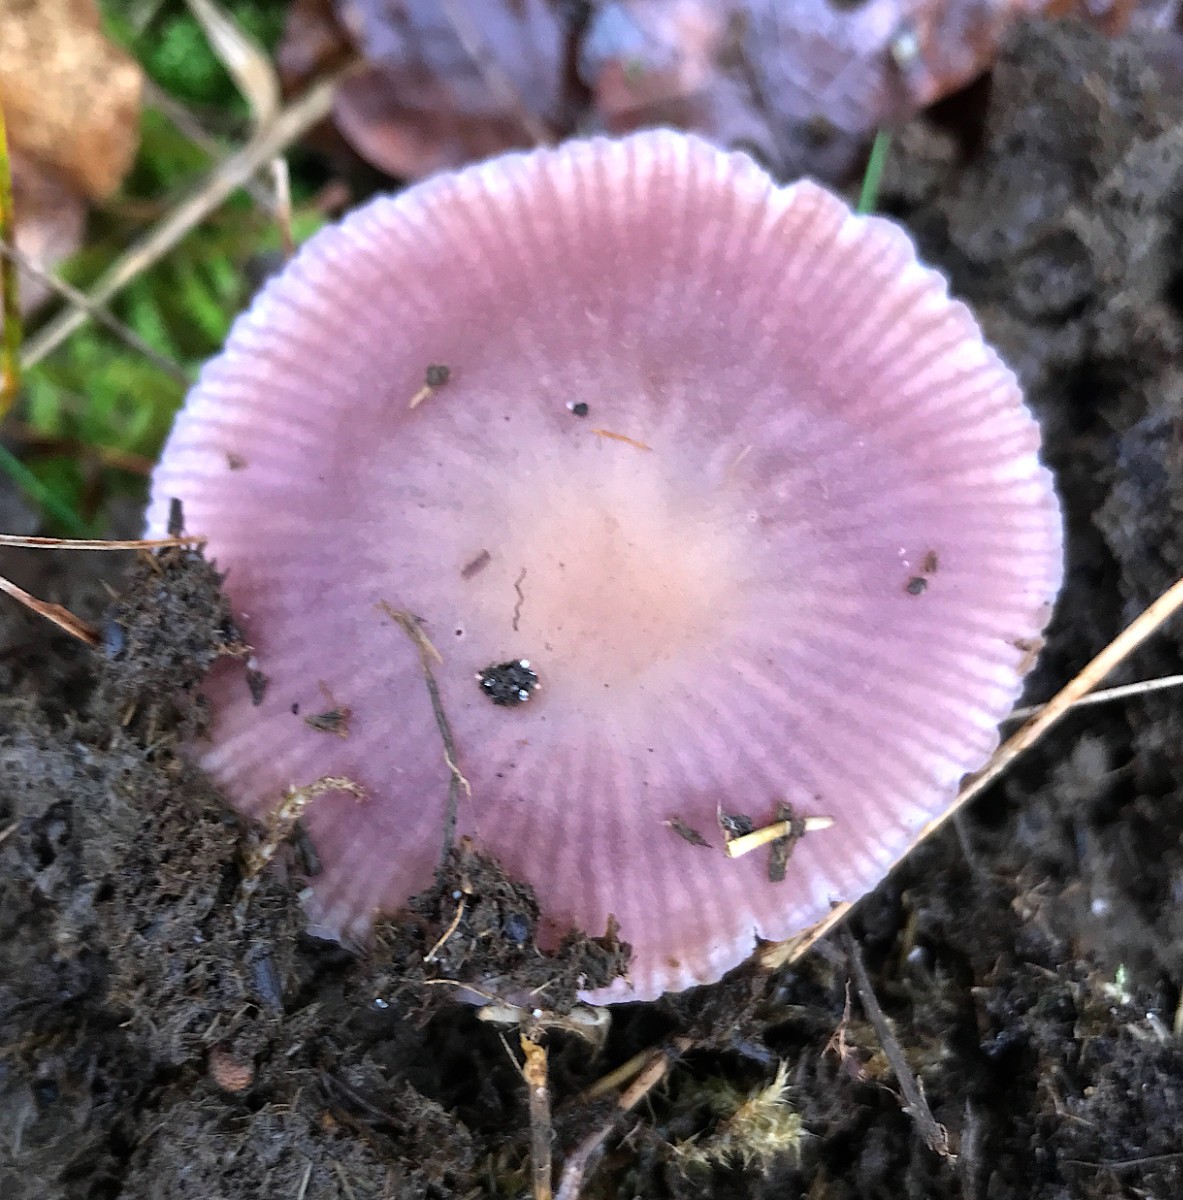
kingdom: Fungi
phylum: Basidiomycota
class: Agaricomycetes
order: Agaricales
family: Hydnangiaceae
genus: Laccaria
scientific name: Laccaria amethystina
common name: violet ametysthat
